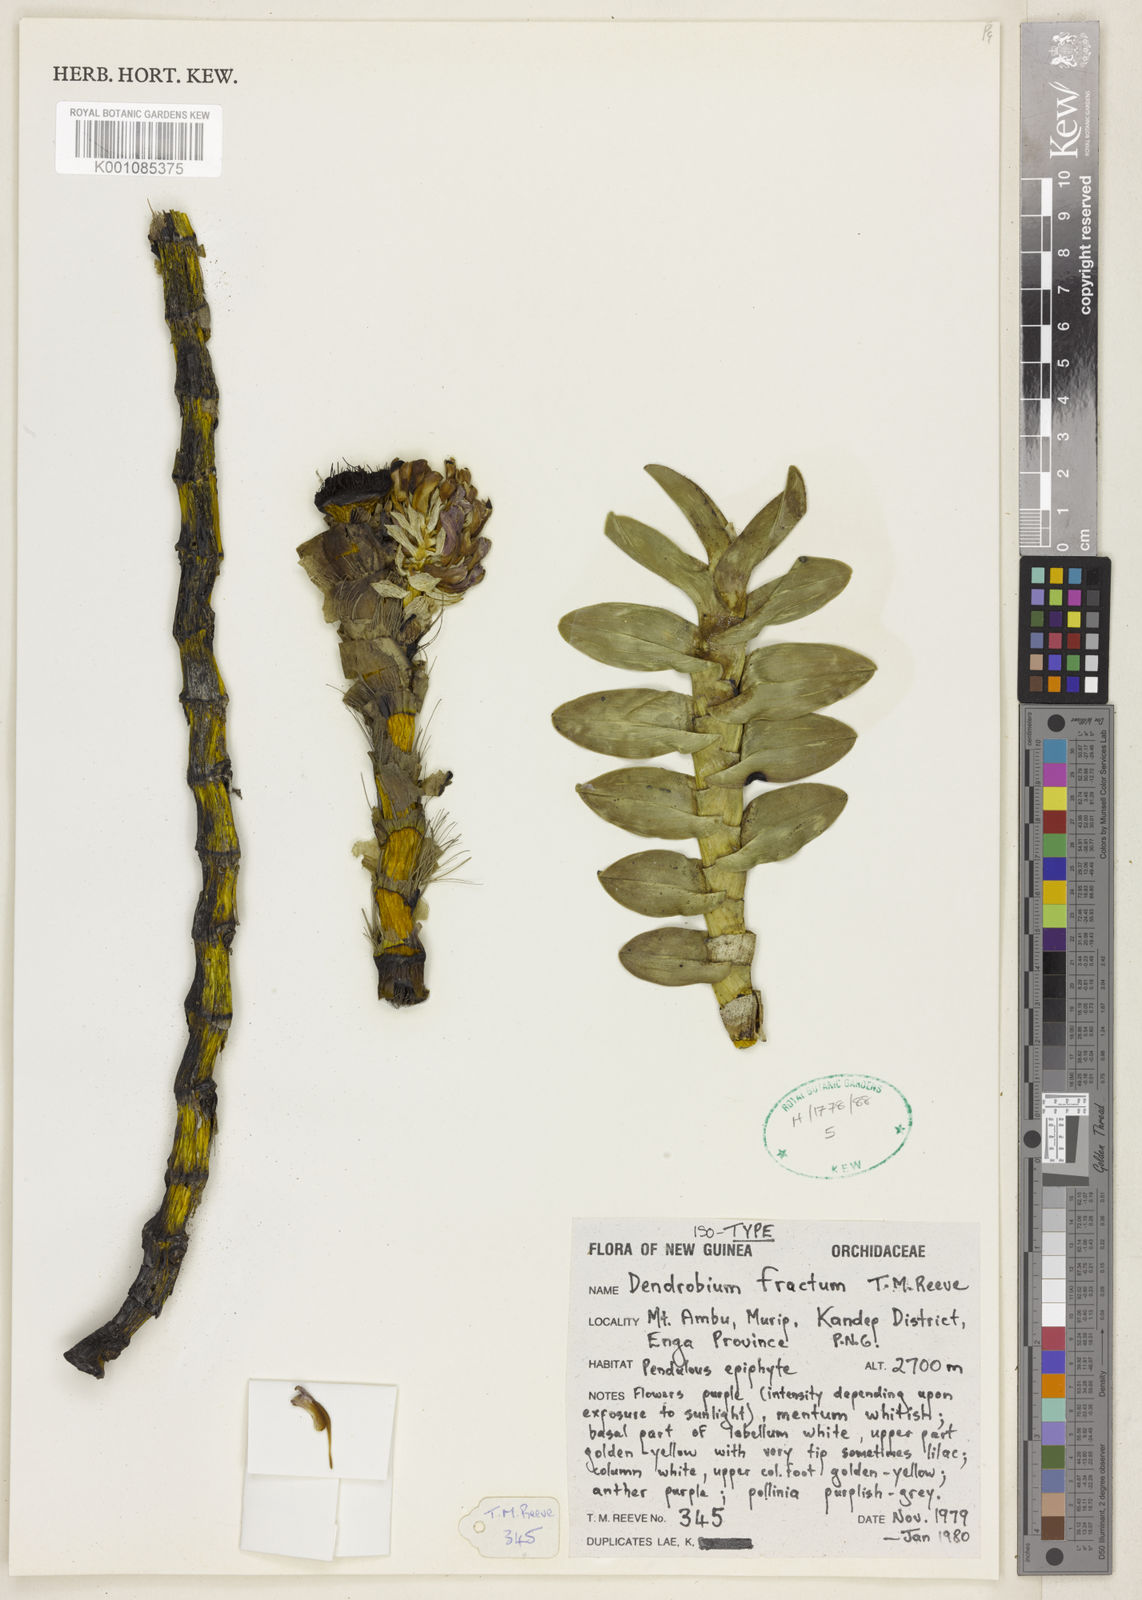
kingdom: Plantae
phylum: Tracheophyta
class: Liliopsida
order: Asparagales
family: Orchidaceae
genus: Dendrobium
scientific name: Dendrobium fractum
